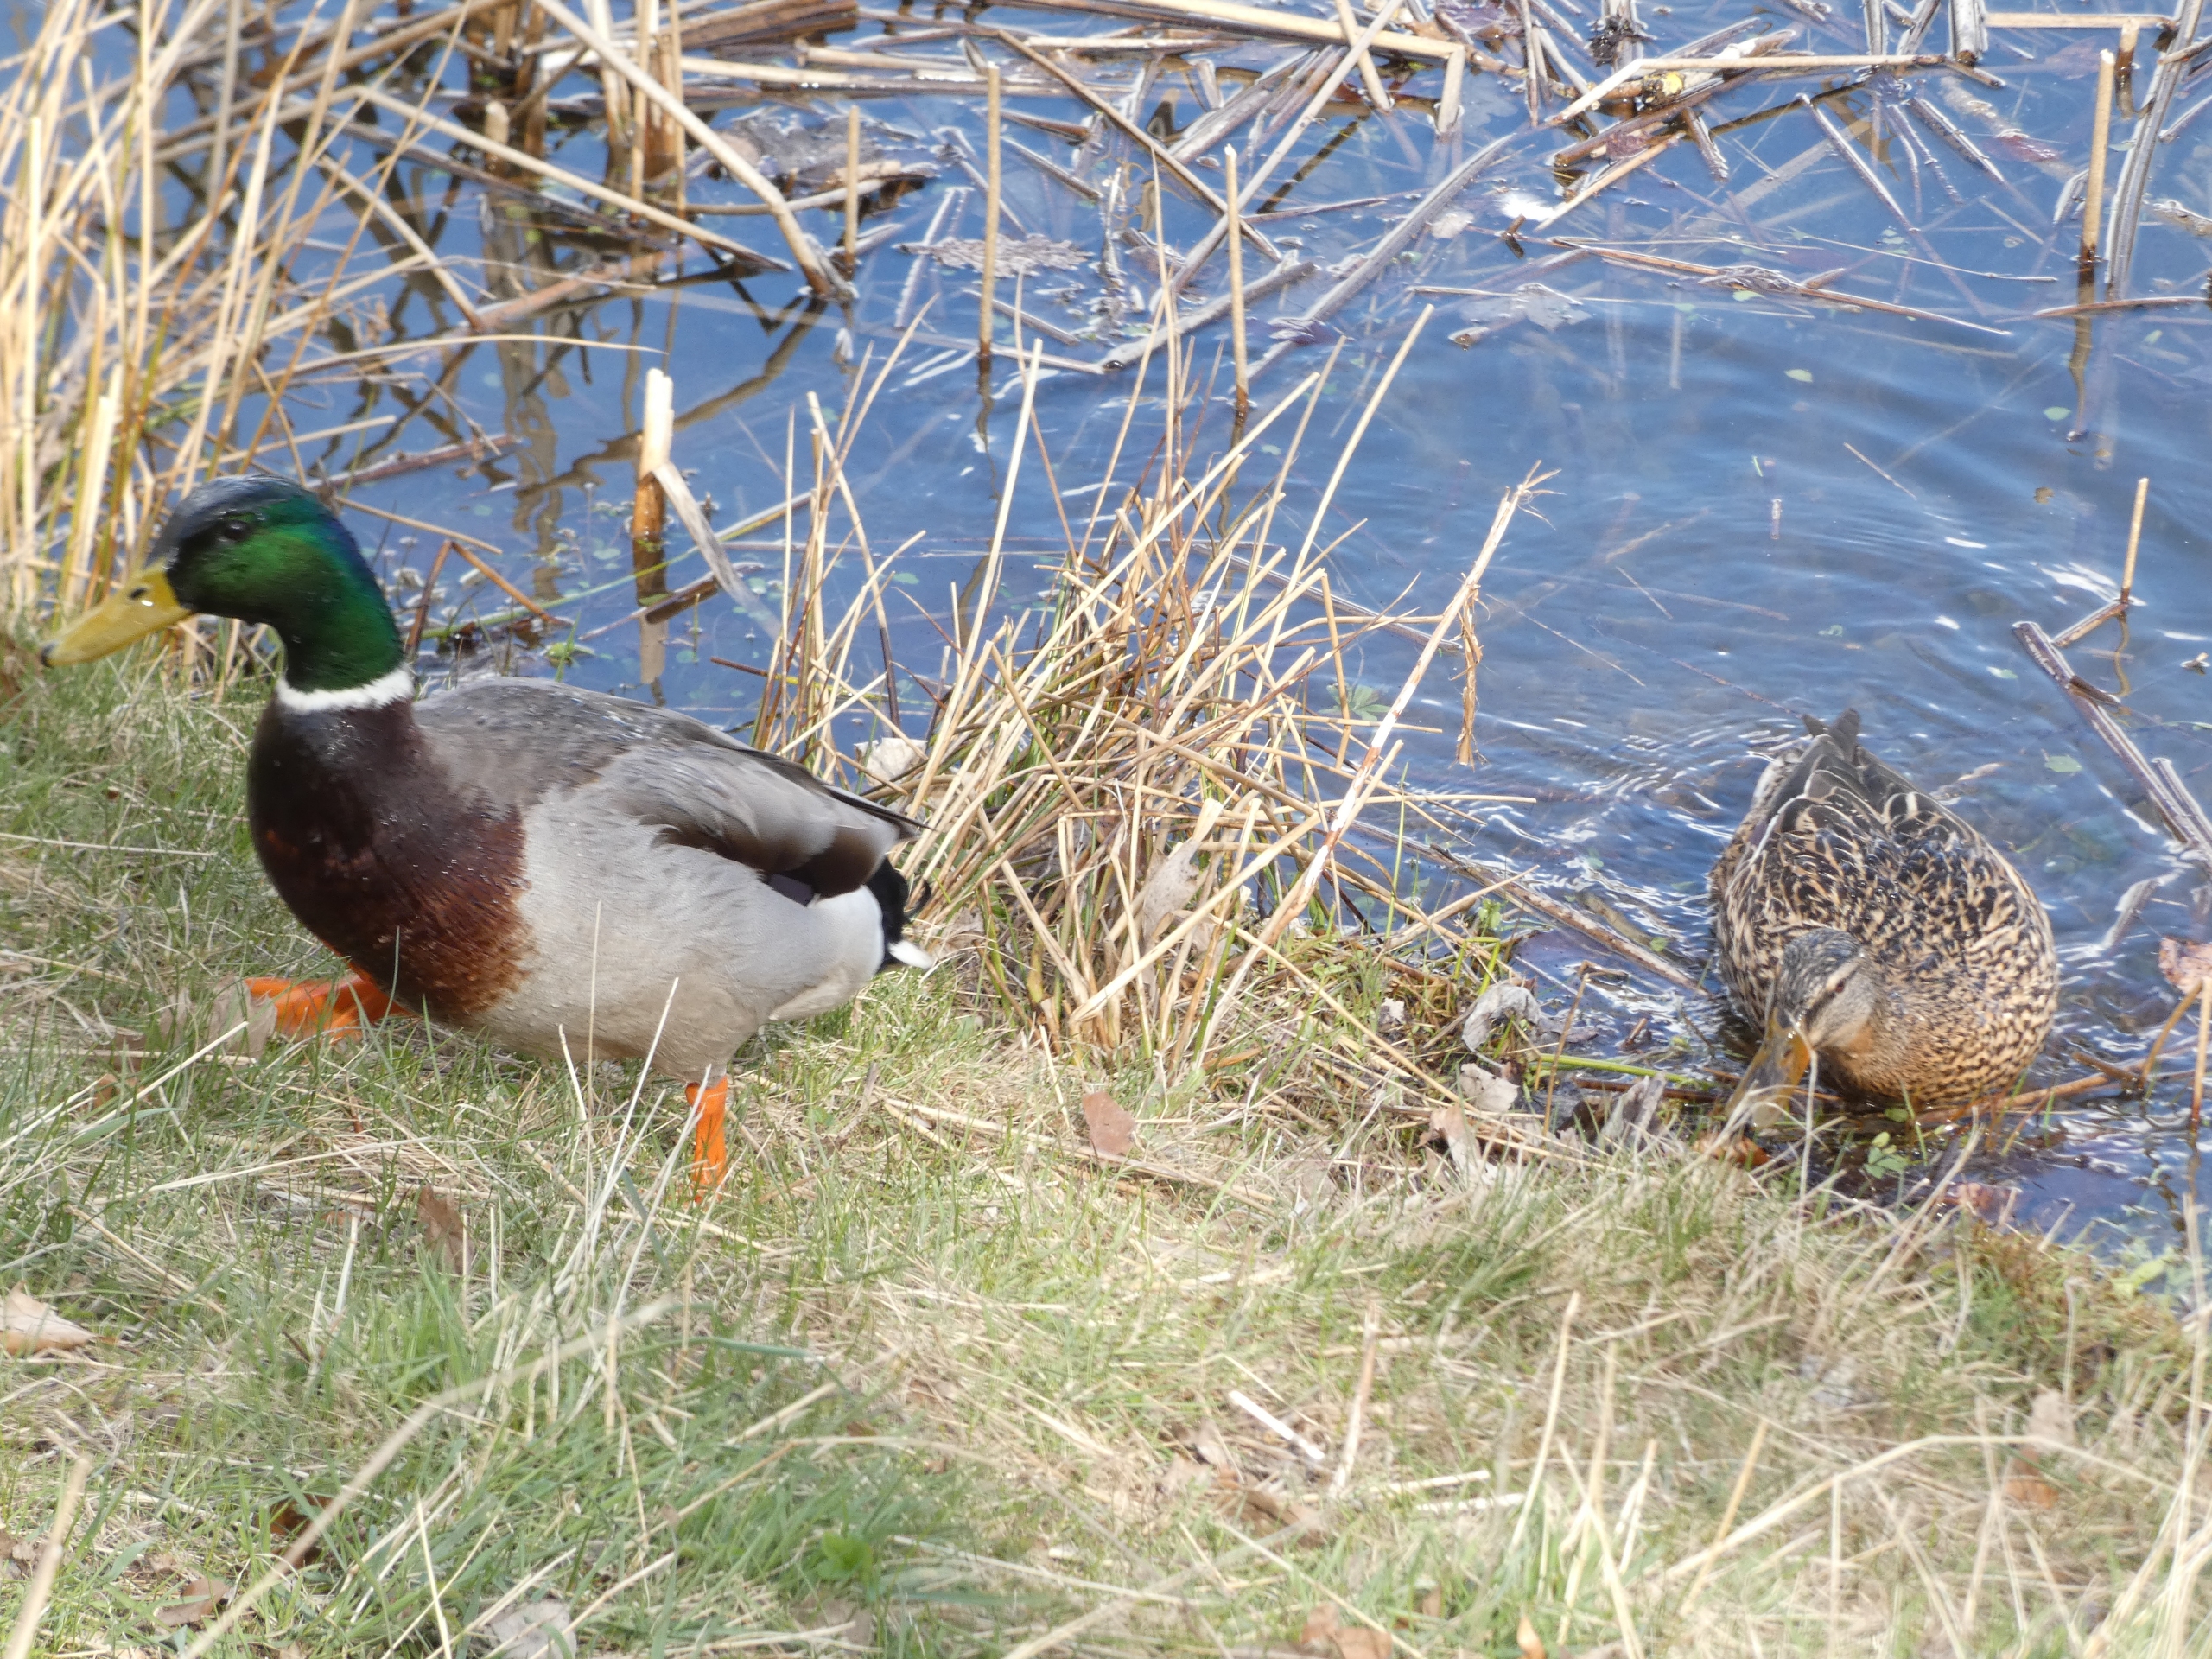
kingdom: Animalia
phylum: Chordata
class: Aves
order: Anseriformes
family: Anatidae
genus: Anas
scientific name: Anas platyrhynchos
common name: Gråand
